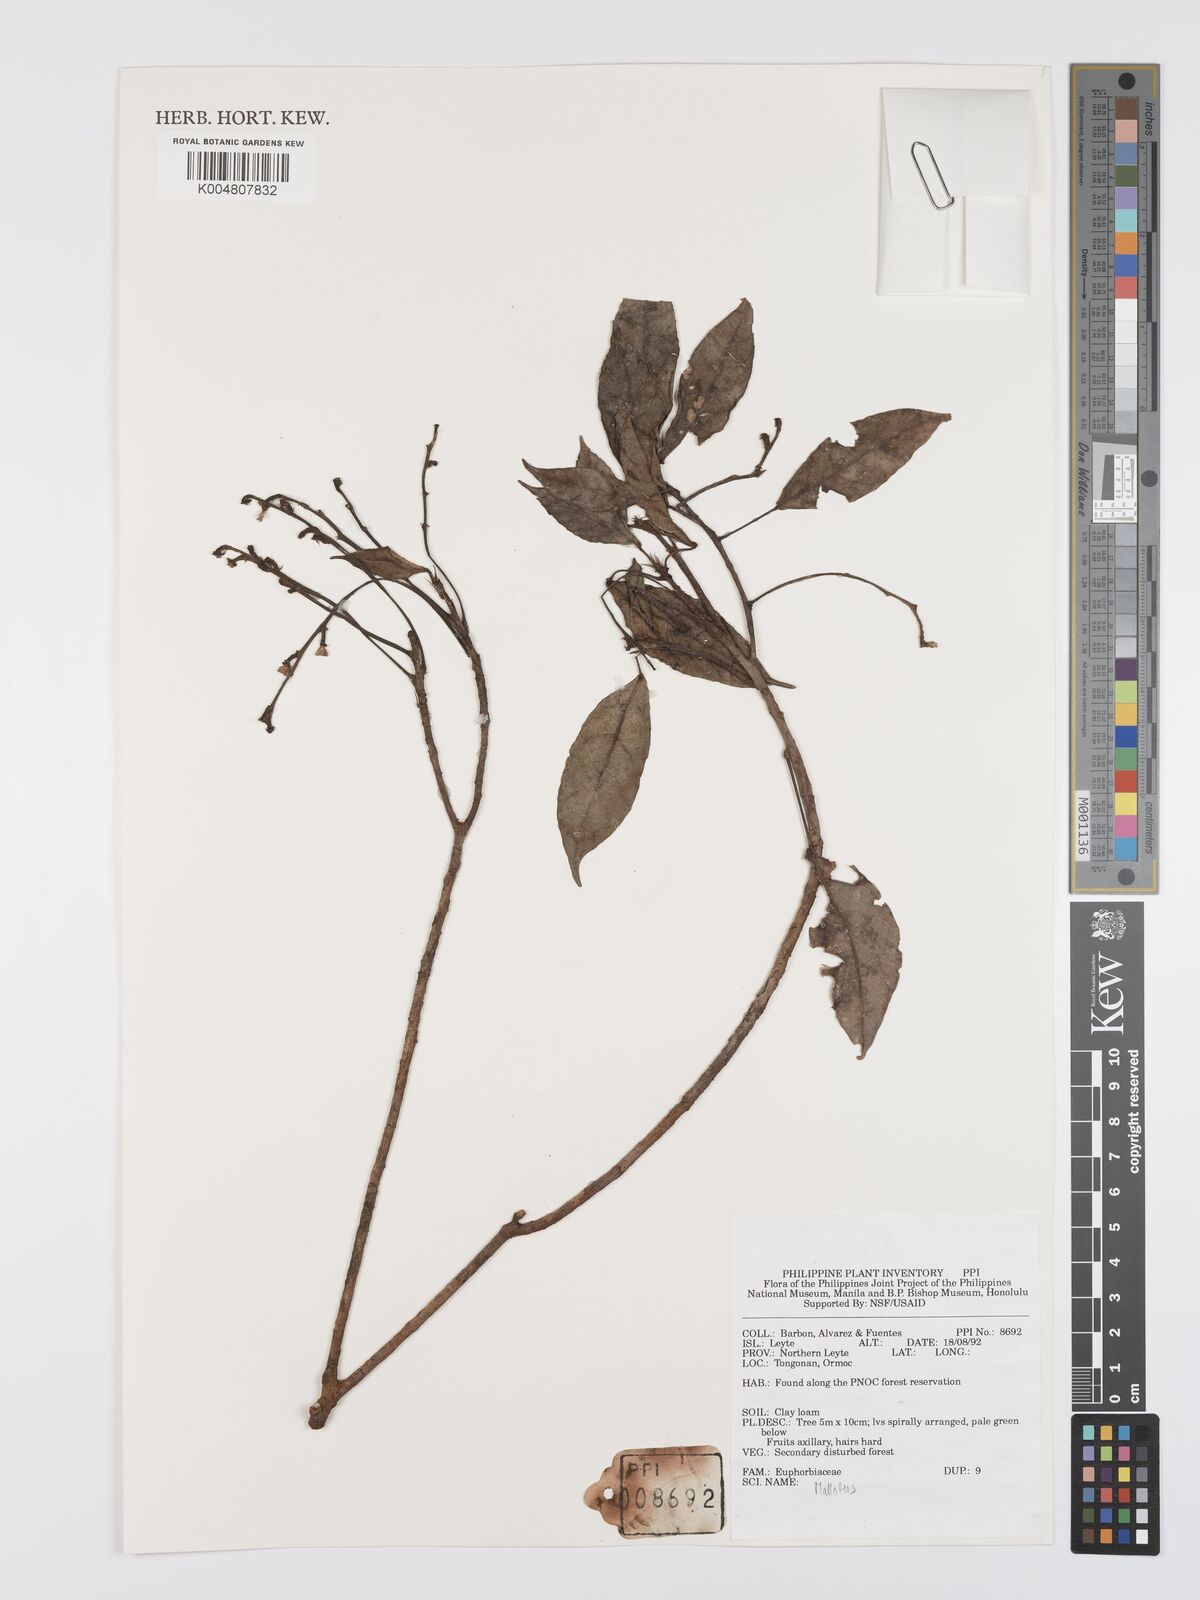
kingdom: Plantae
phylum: Tracheophyta
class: Magnoliopsida
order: Malpighiales
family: Euphorbiaceae
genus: Mallotus
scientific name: Mallotus
